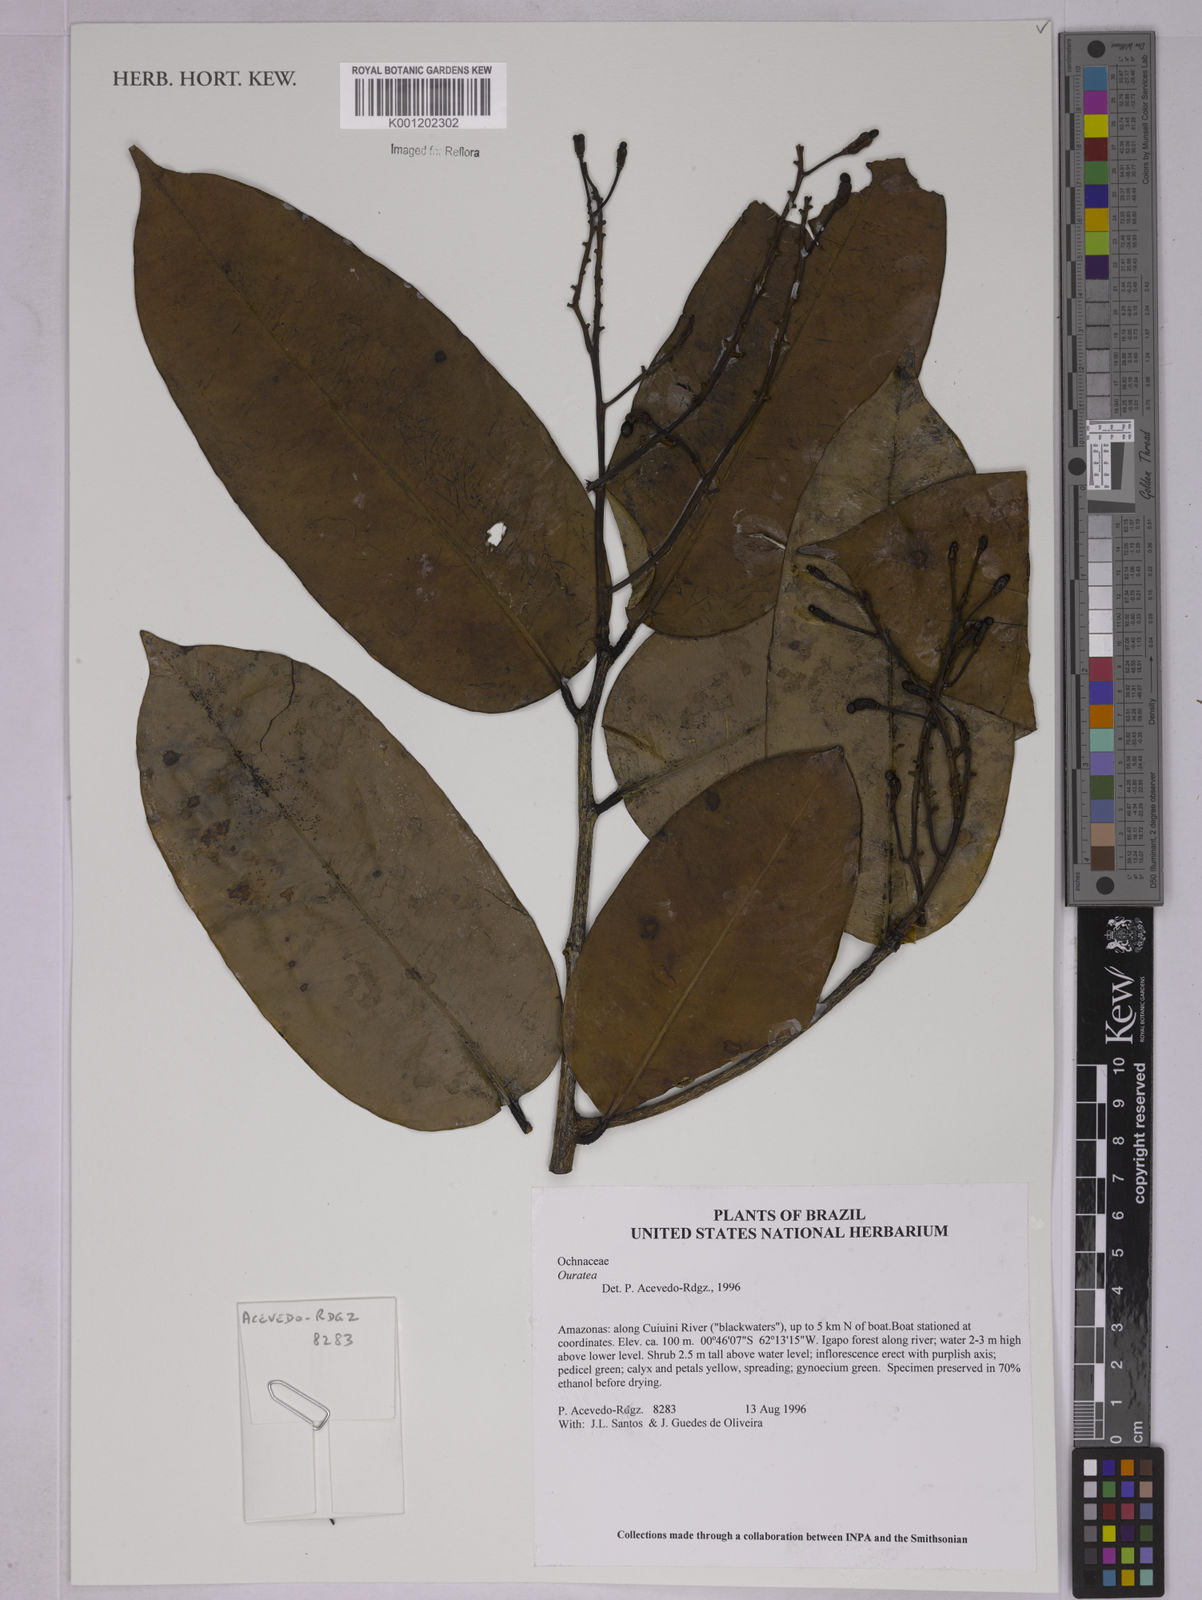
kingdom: Plantae
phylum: Tracheophyta
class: Magnoliopsida
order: Malpighiales
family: Ochnaceae
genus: Ouratea
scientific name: Ouratea
